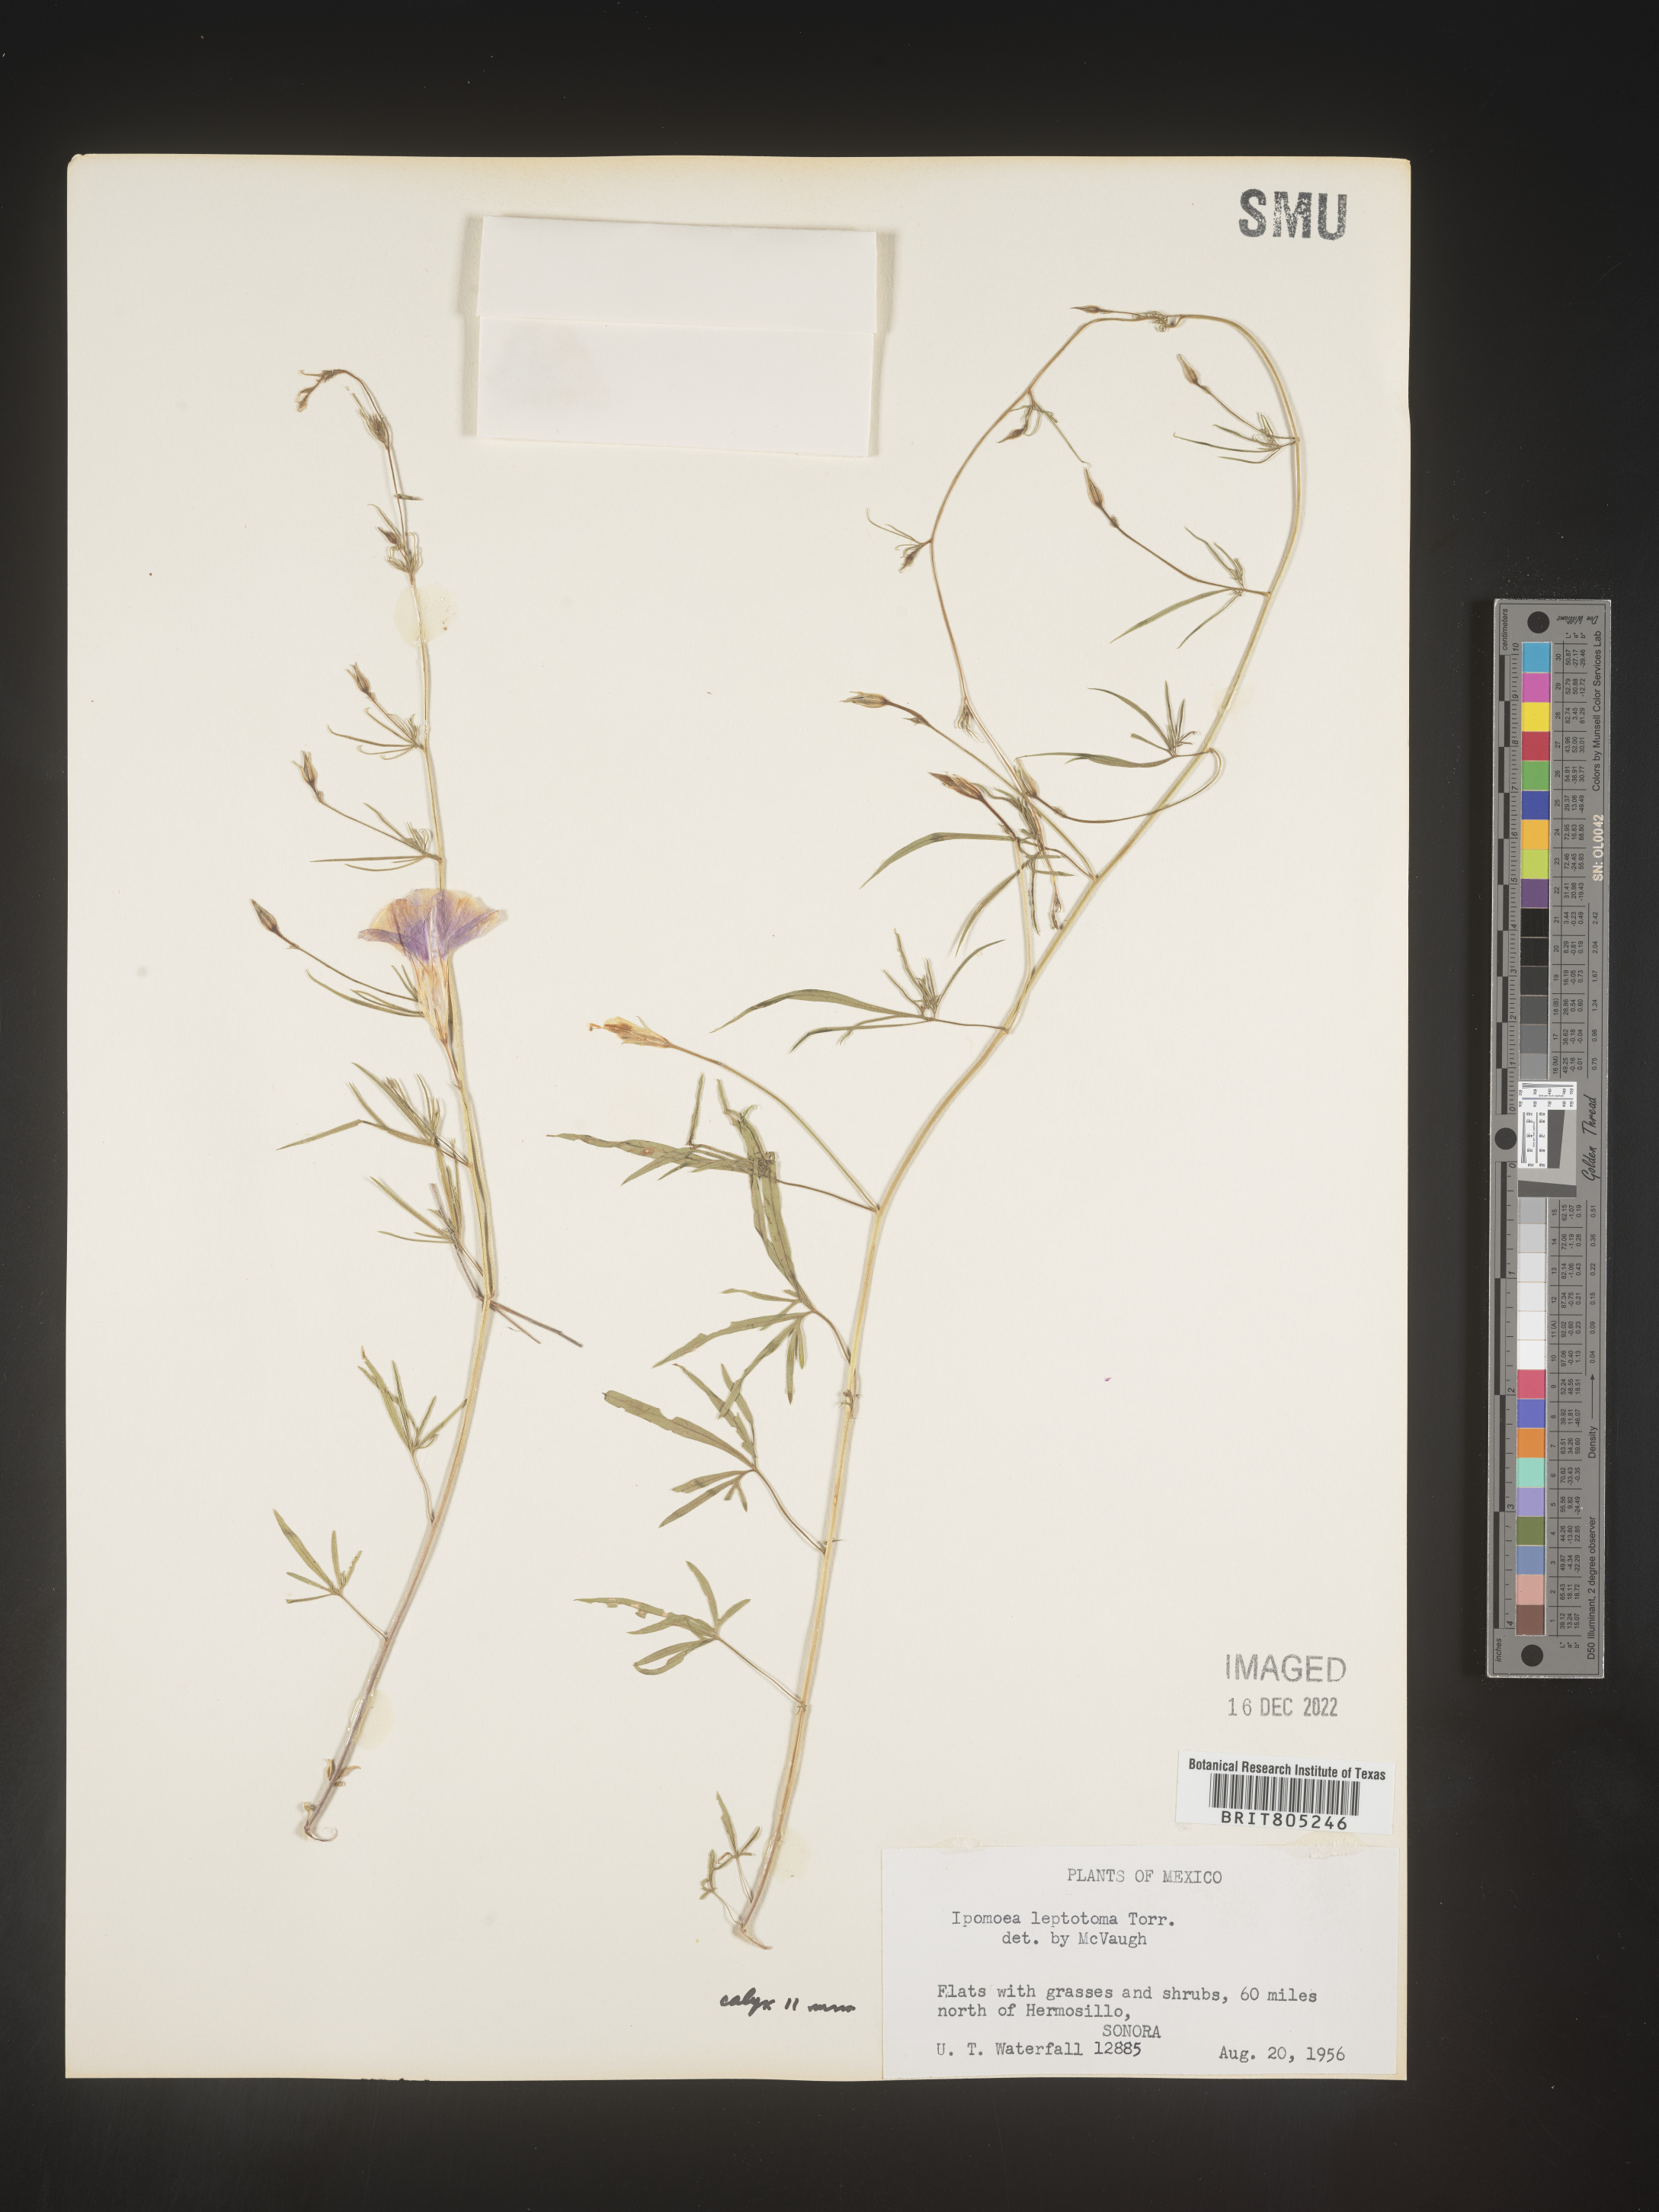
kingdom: Plantae
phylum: Tracheophyta
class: Magnoliopsida
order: Solanales
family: Convolvulaceae
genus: Ipomoea
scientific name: Ipomoea
